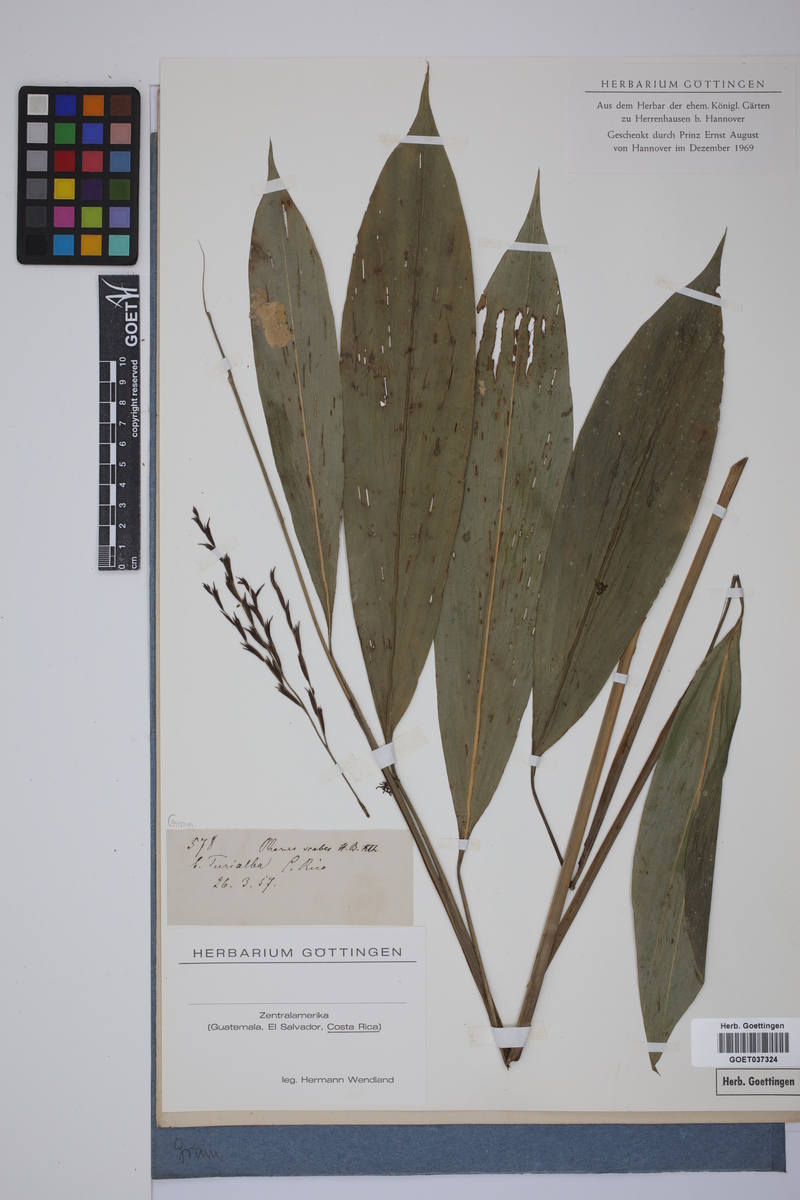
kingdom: Plantae
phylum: Tracheophyta
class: Liliopsida
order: Poales
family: Poaceae
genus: Pharus
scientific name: Pharus latifolius
